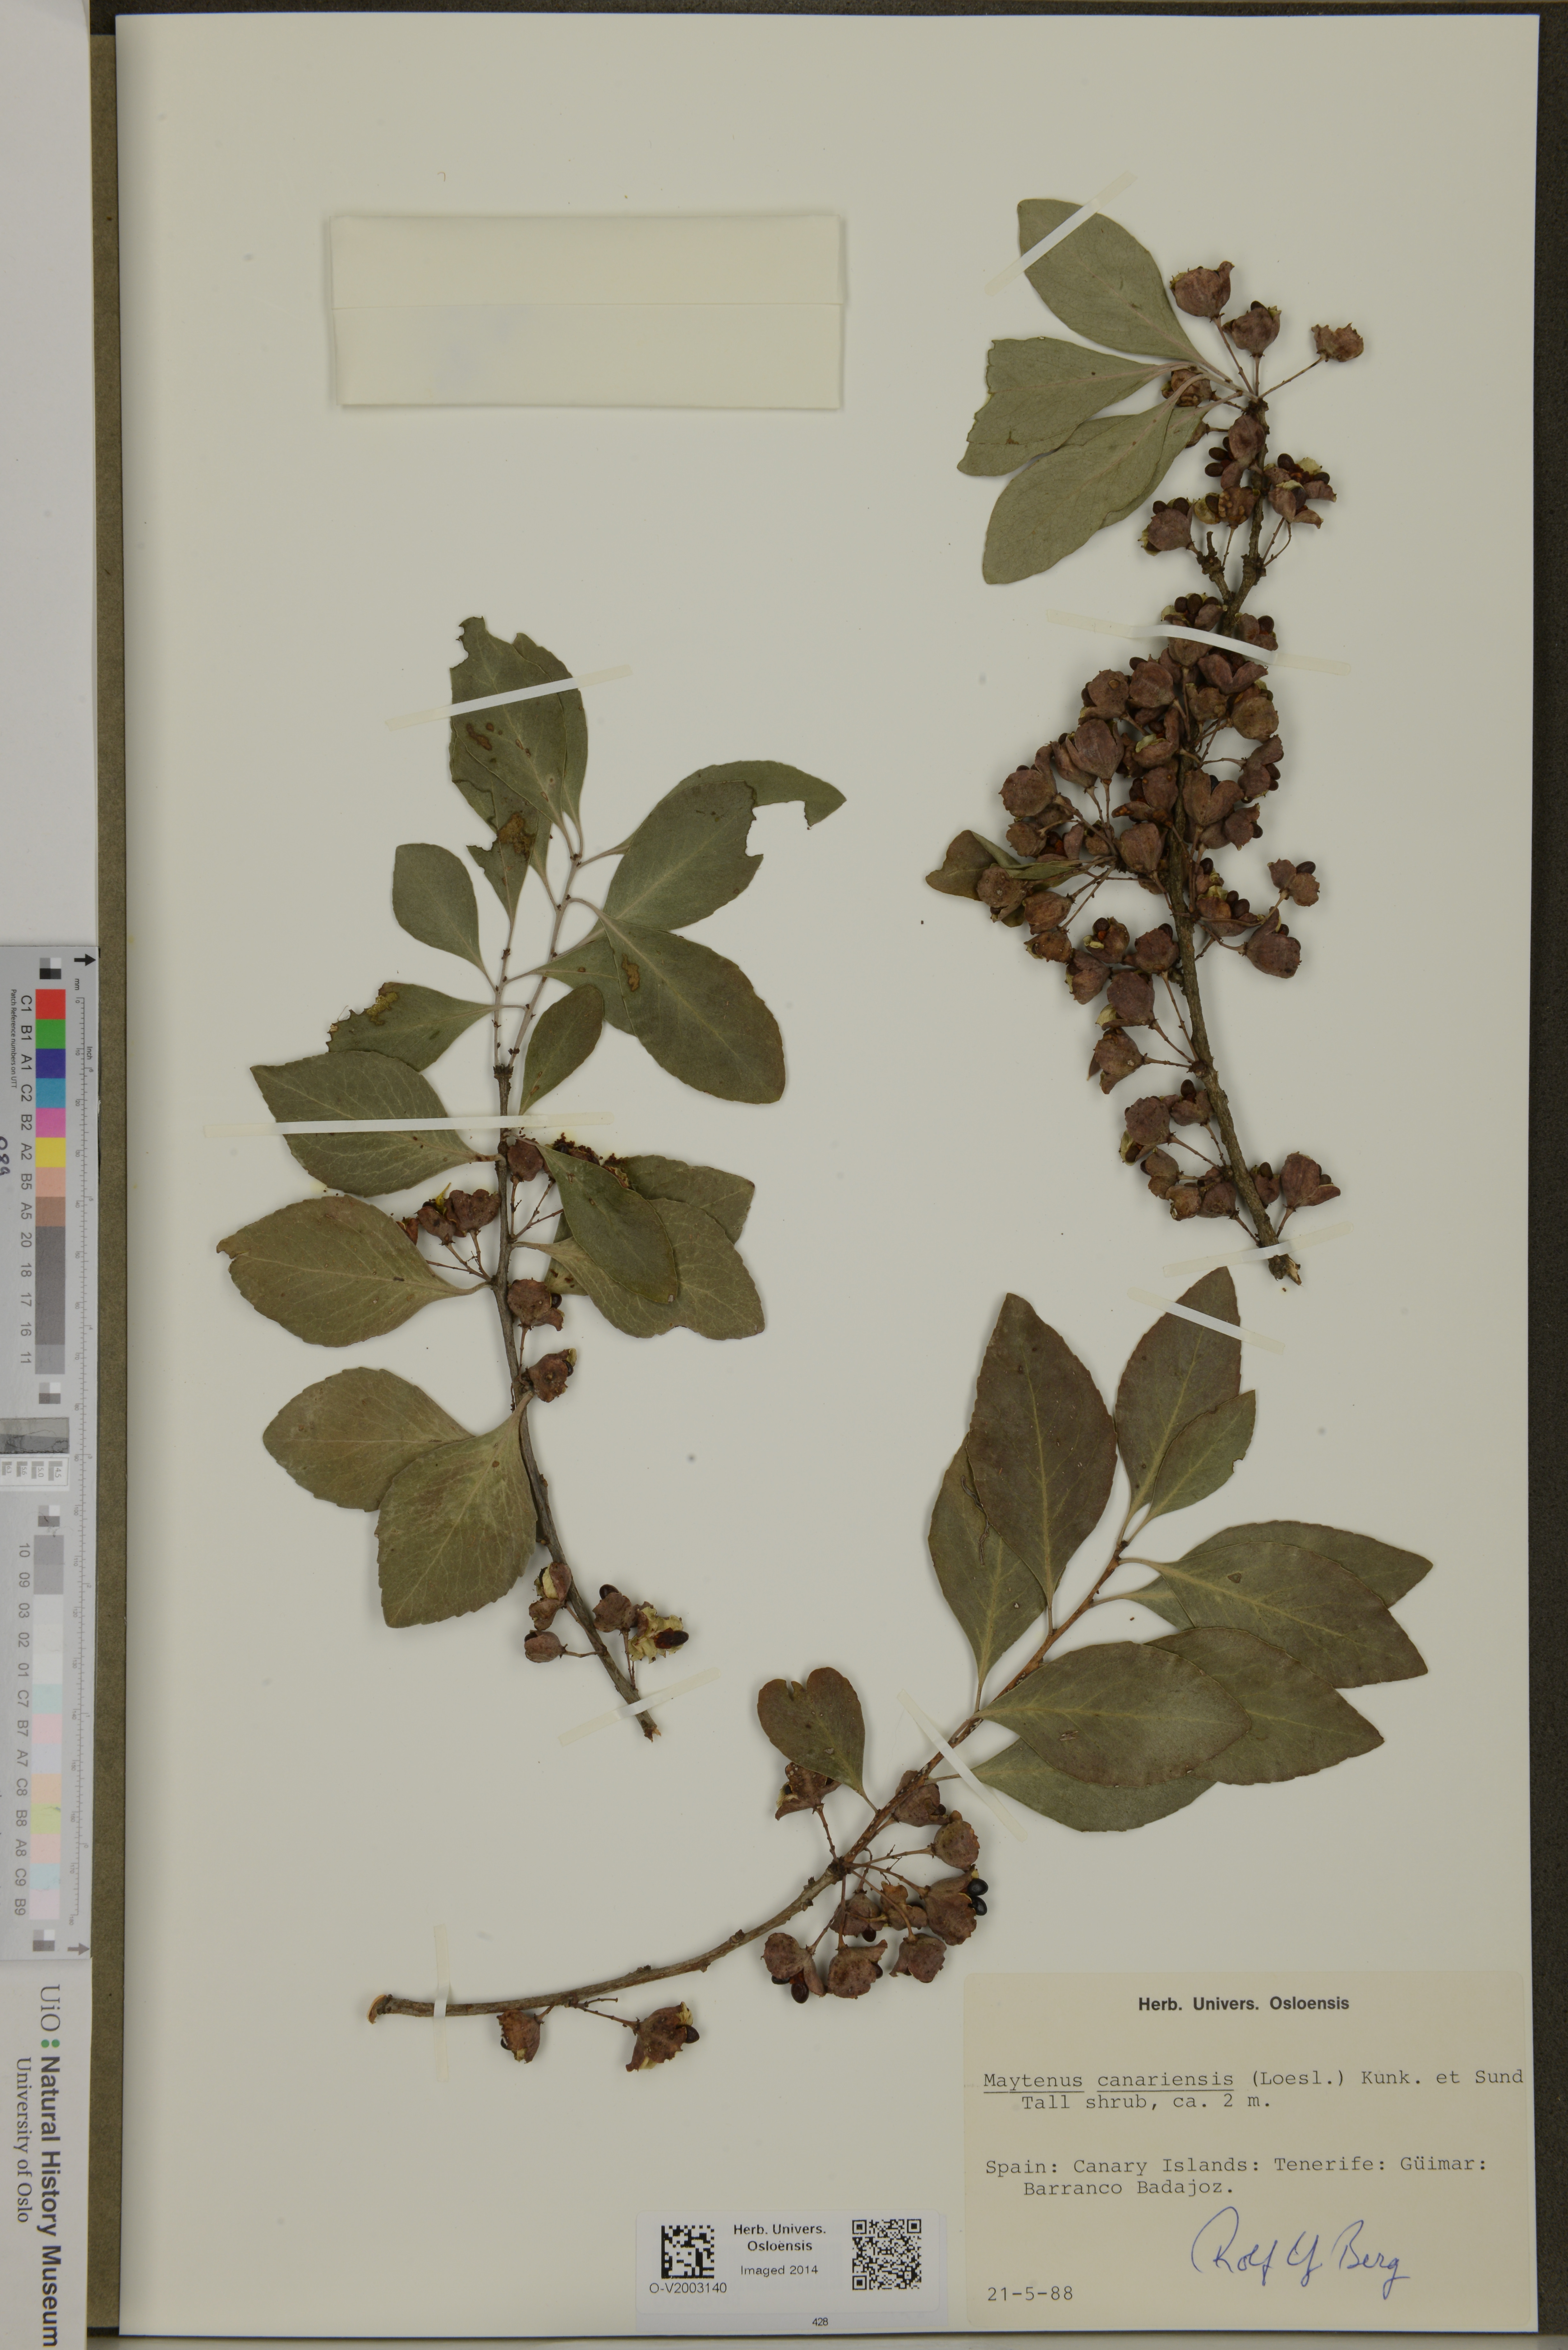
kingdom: Plantae
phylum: Tracheophyta
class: Magnoliopsida
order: Celastrales
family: Celastraceae
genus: Gymnosporia
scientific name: Gymnosporia cassinoides
